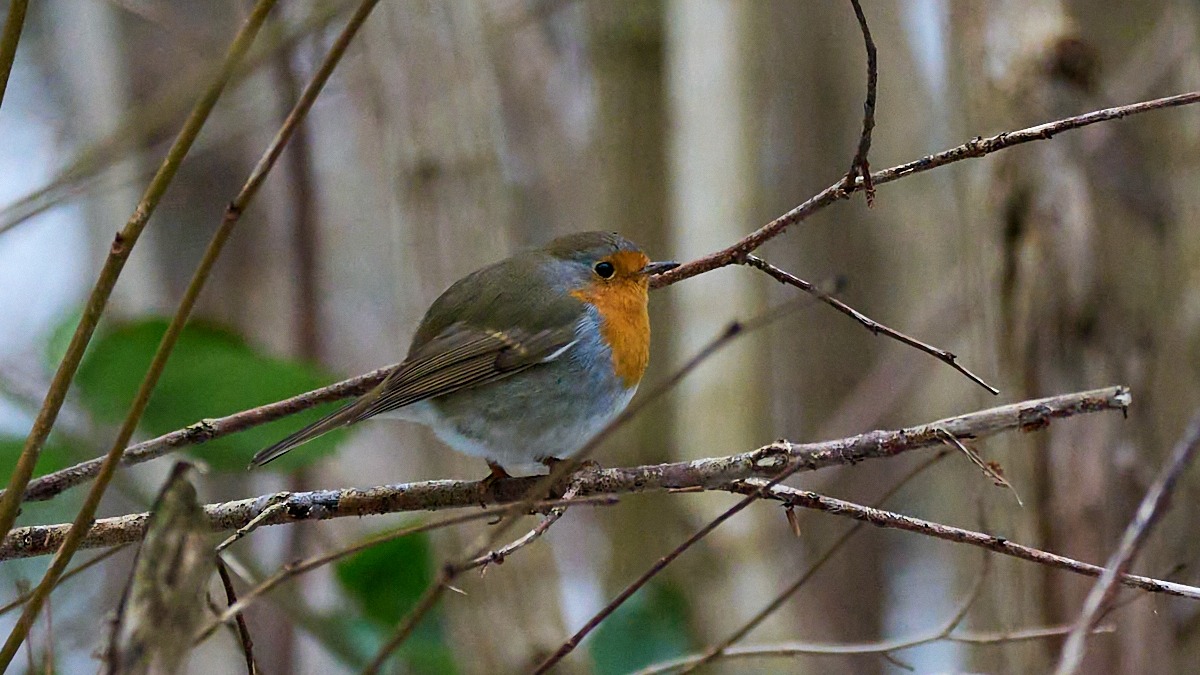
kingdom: Animalia
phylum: Chordata
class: Aves
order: Passeriformes
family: Muscicapidae
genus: Erithacus
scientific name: Erithacus rubecula
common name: Rødhals/rødkælk
